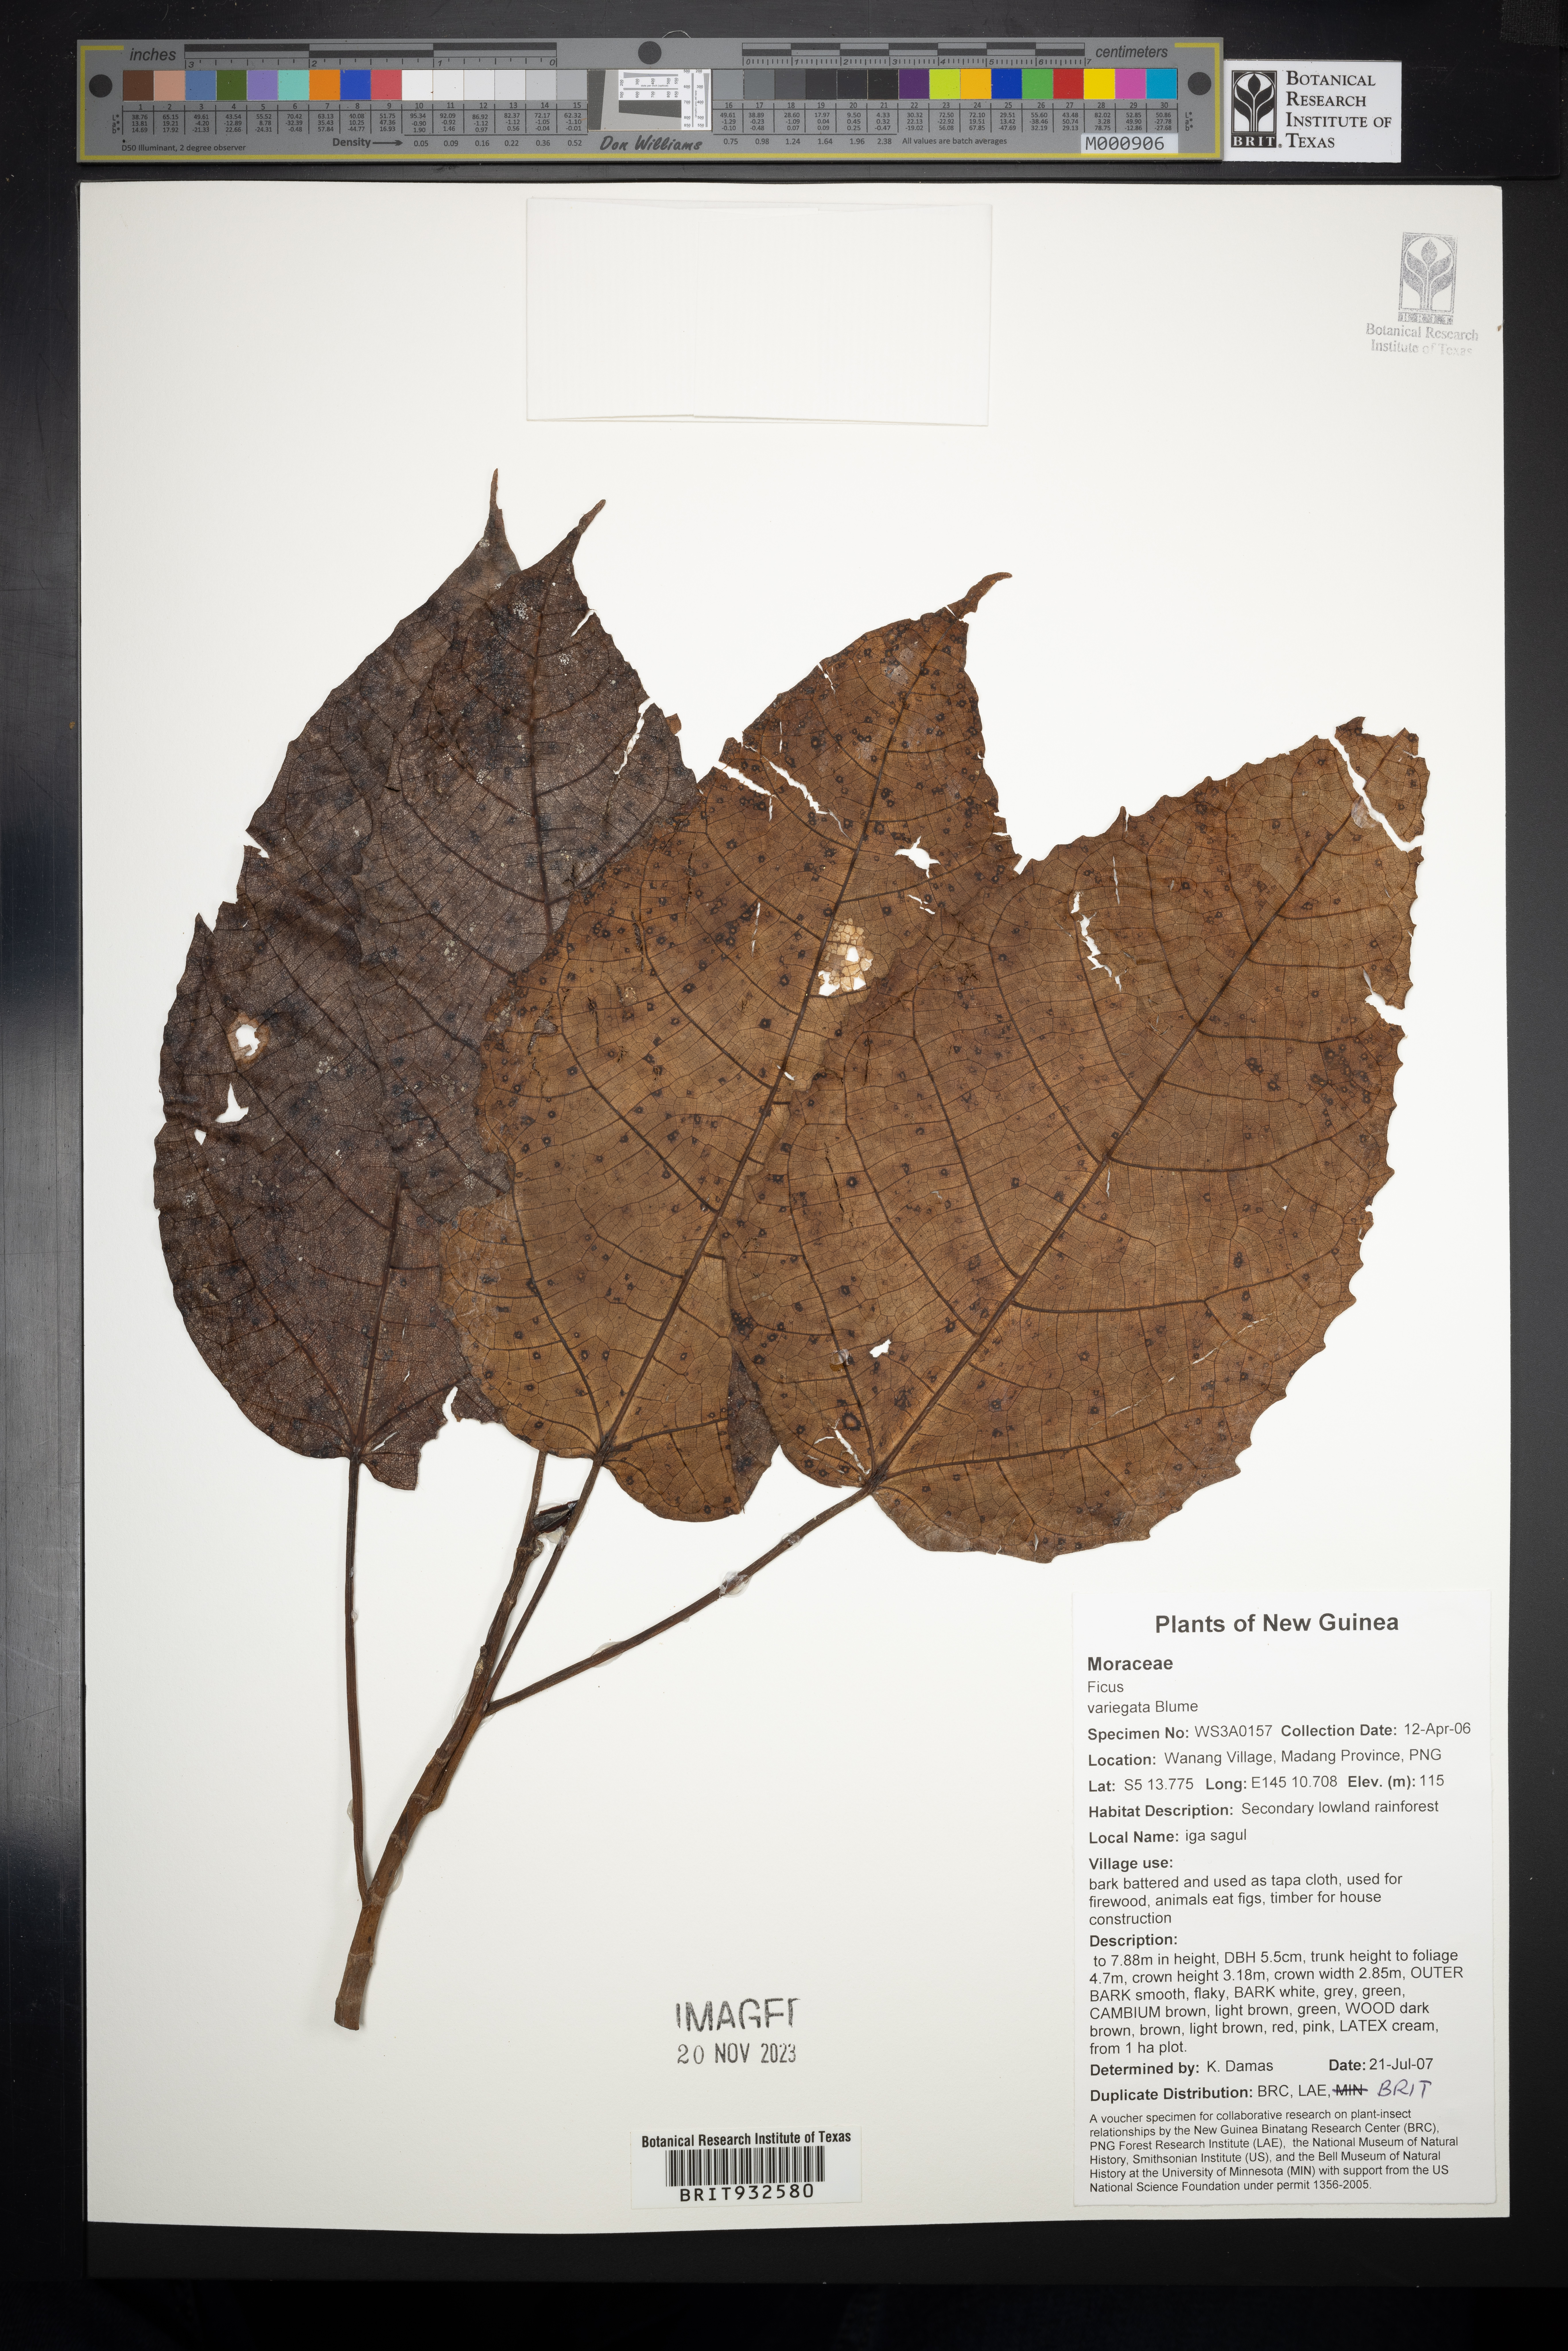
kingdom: Plantae
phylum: Tracheophyta
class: Magnoliopsida
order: Rosales
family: Moraceae
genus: Ficus
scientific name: Ficus variegata
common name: Variegated fig
